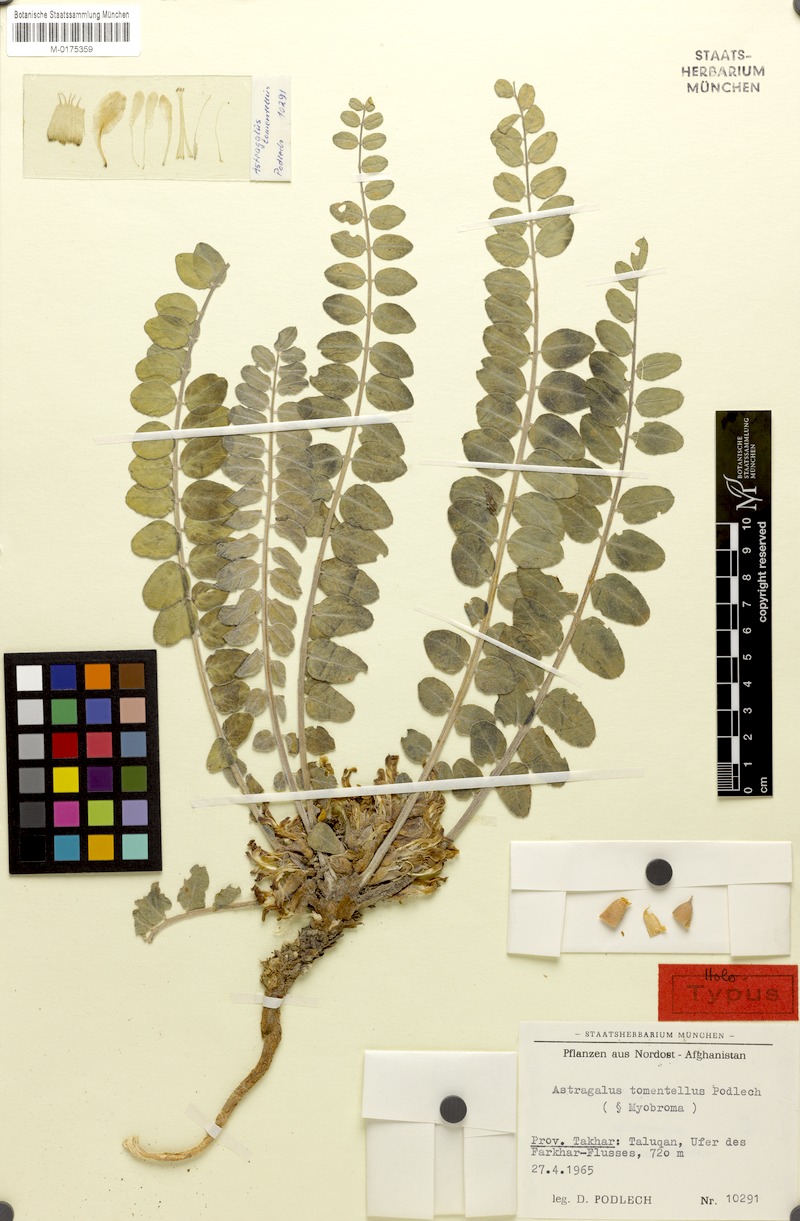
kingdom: Plantae
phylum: Tracheophyta
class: Magnoliopsida
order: Fabales
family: Fabaceae
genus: Astragalus
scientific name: Astragalus tomentellus
